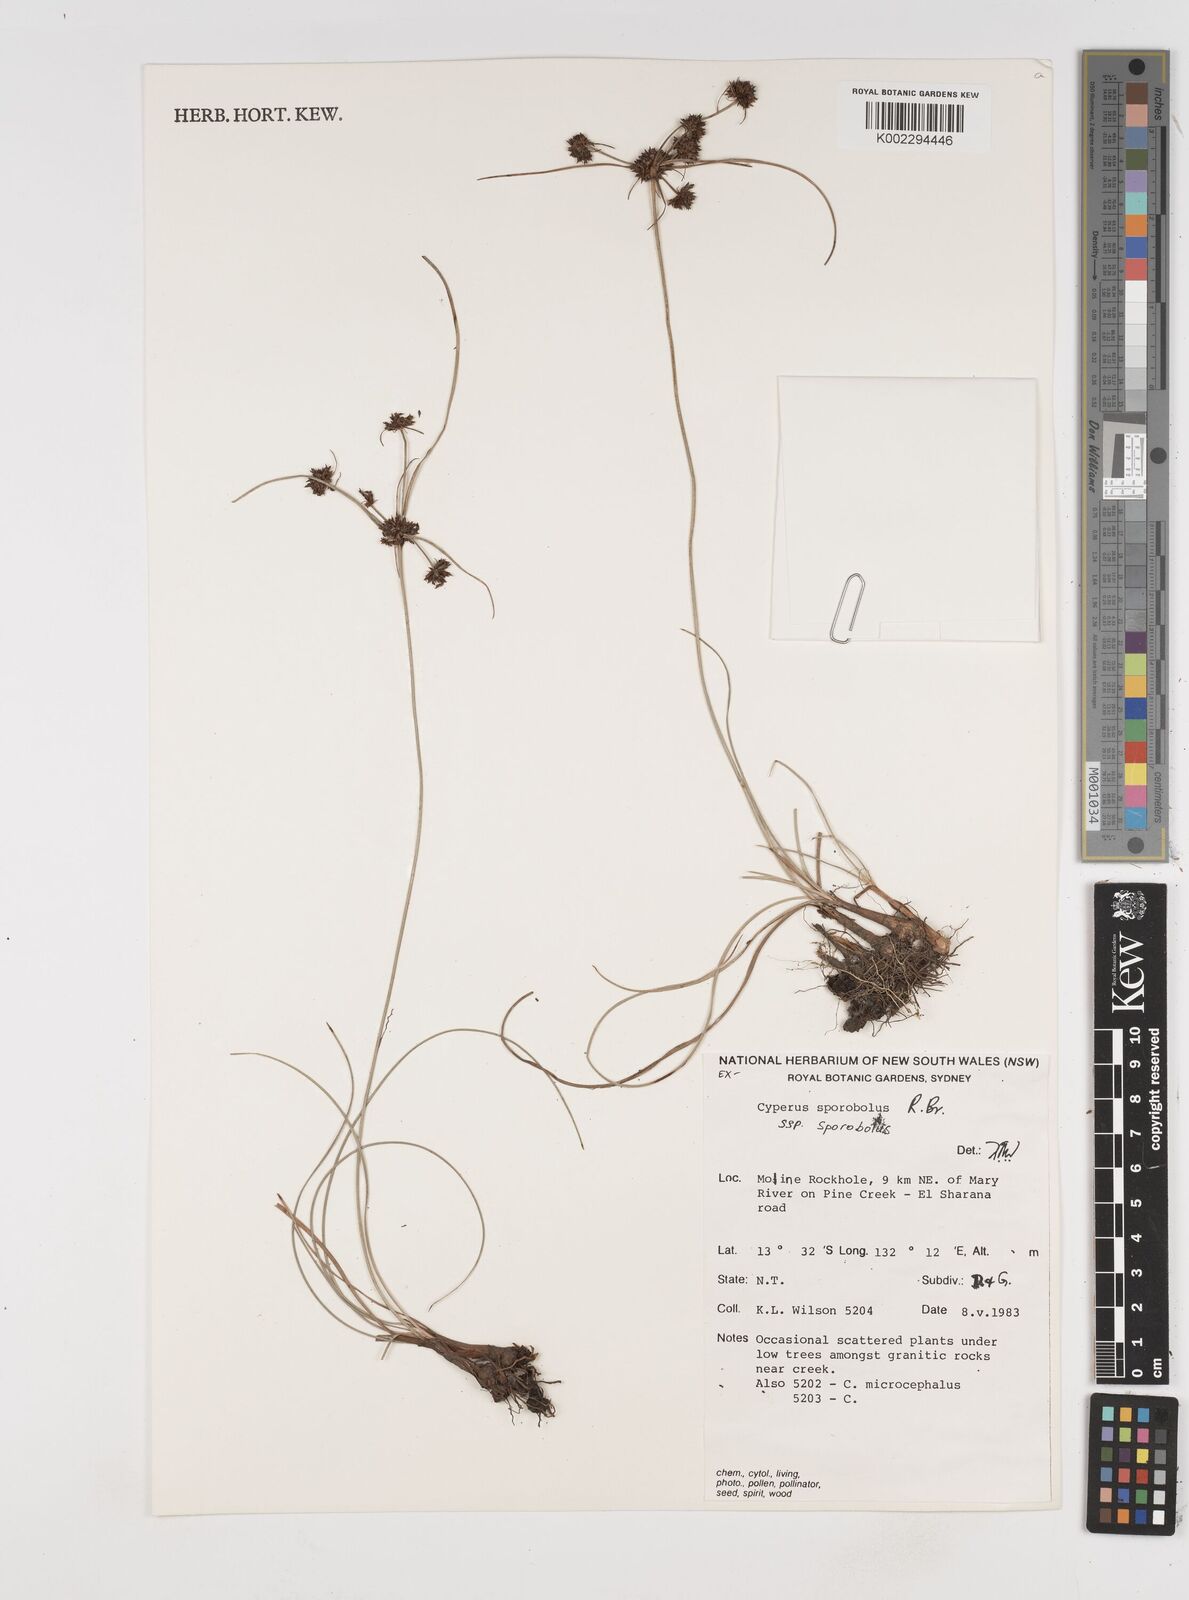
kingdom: Plantae
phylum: Tracheophyta
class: Liliopsida
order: Poales
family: Cyperaceae
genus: Cyperus
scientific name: Cyperus sporobolus
